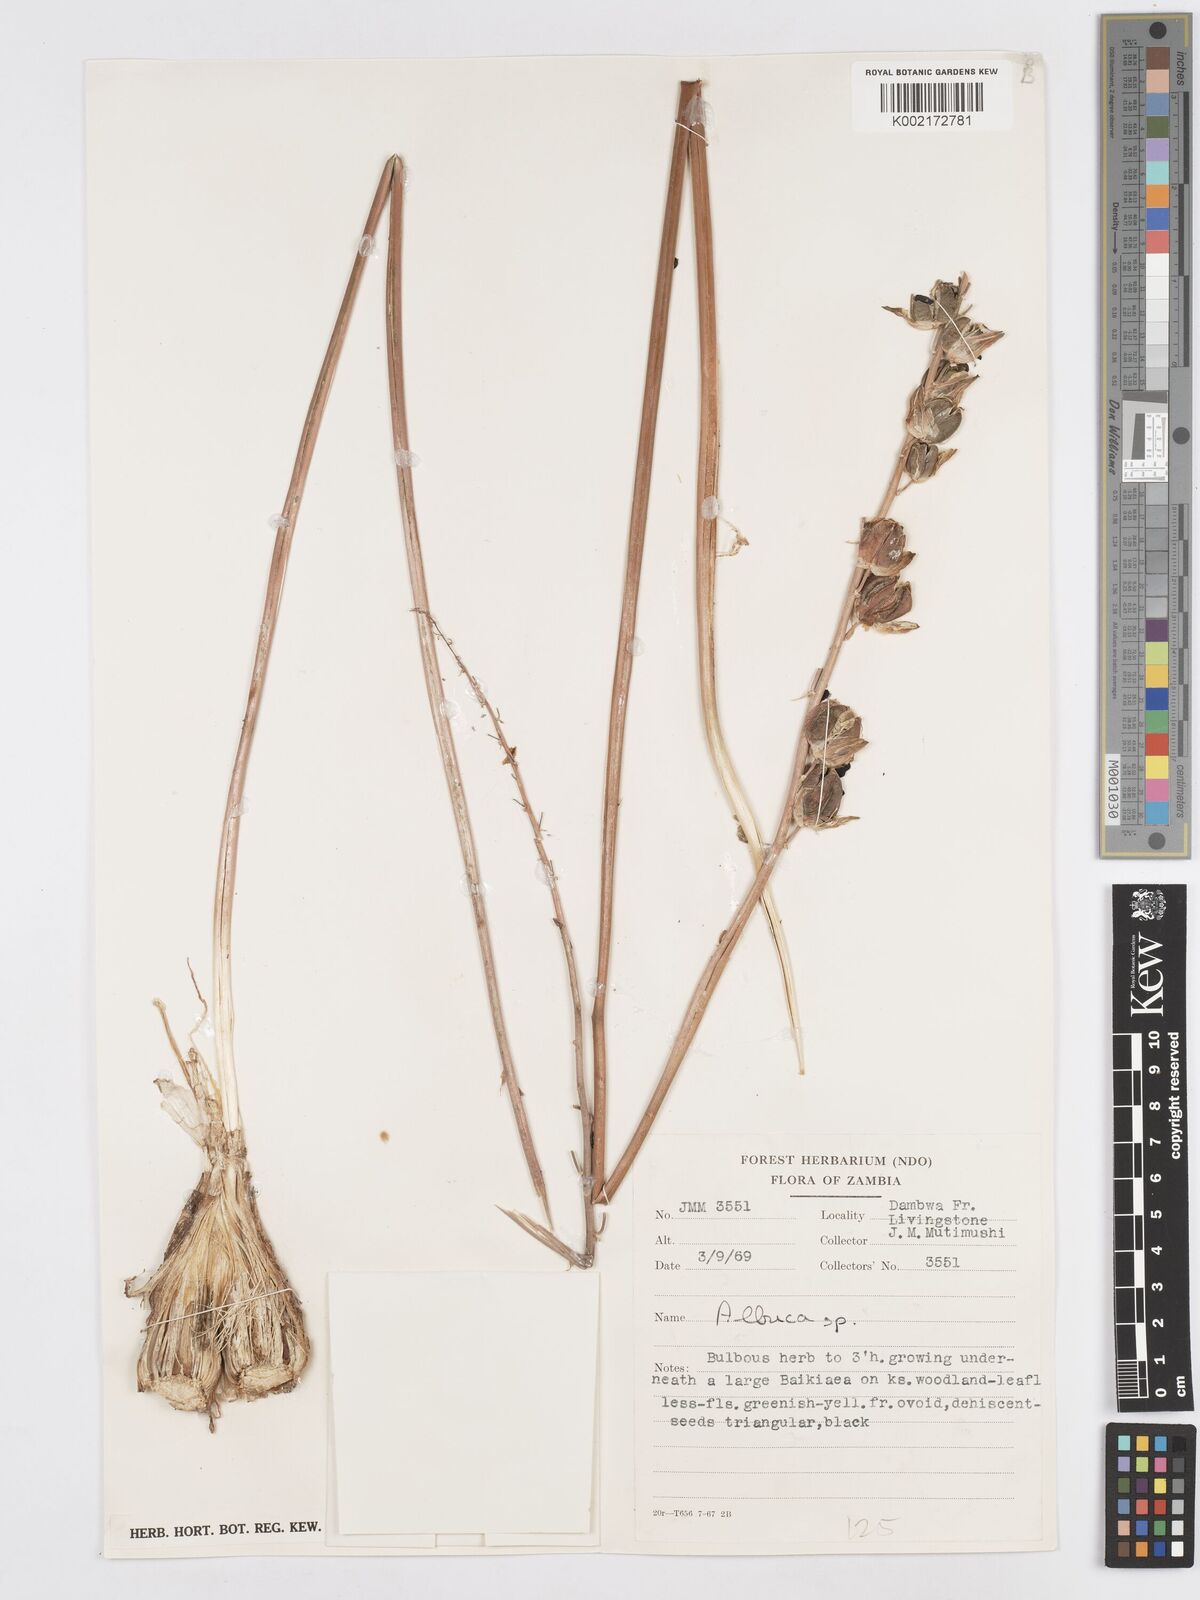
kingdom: Plantae
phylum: Tracheophyta
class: Liliopsida
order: Asparagales
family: Asparagaceae
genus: Albuca
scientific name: Albuca
